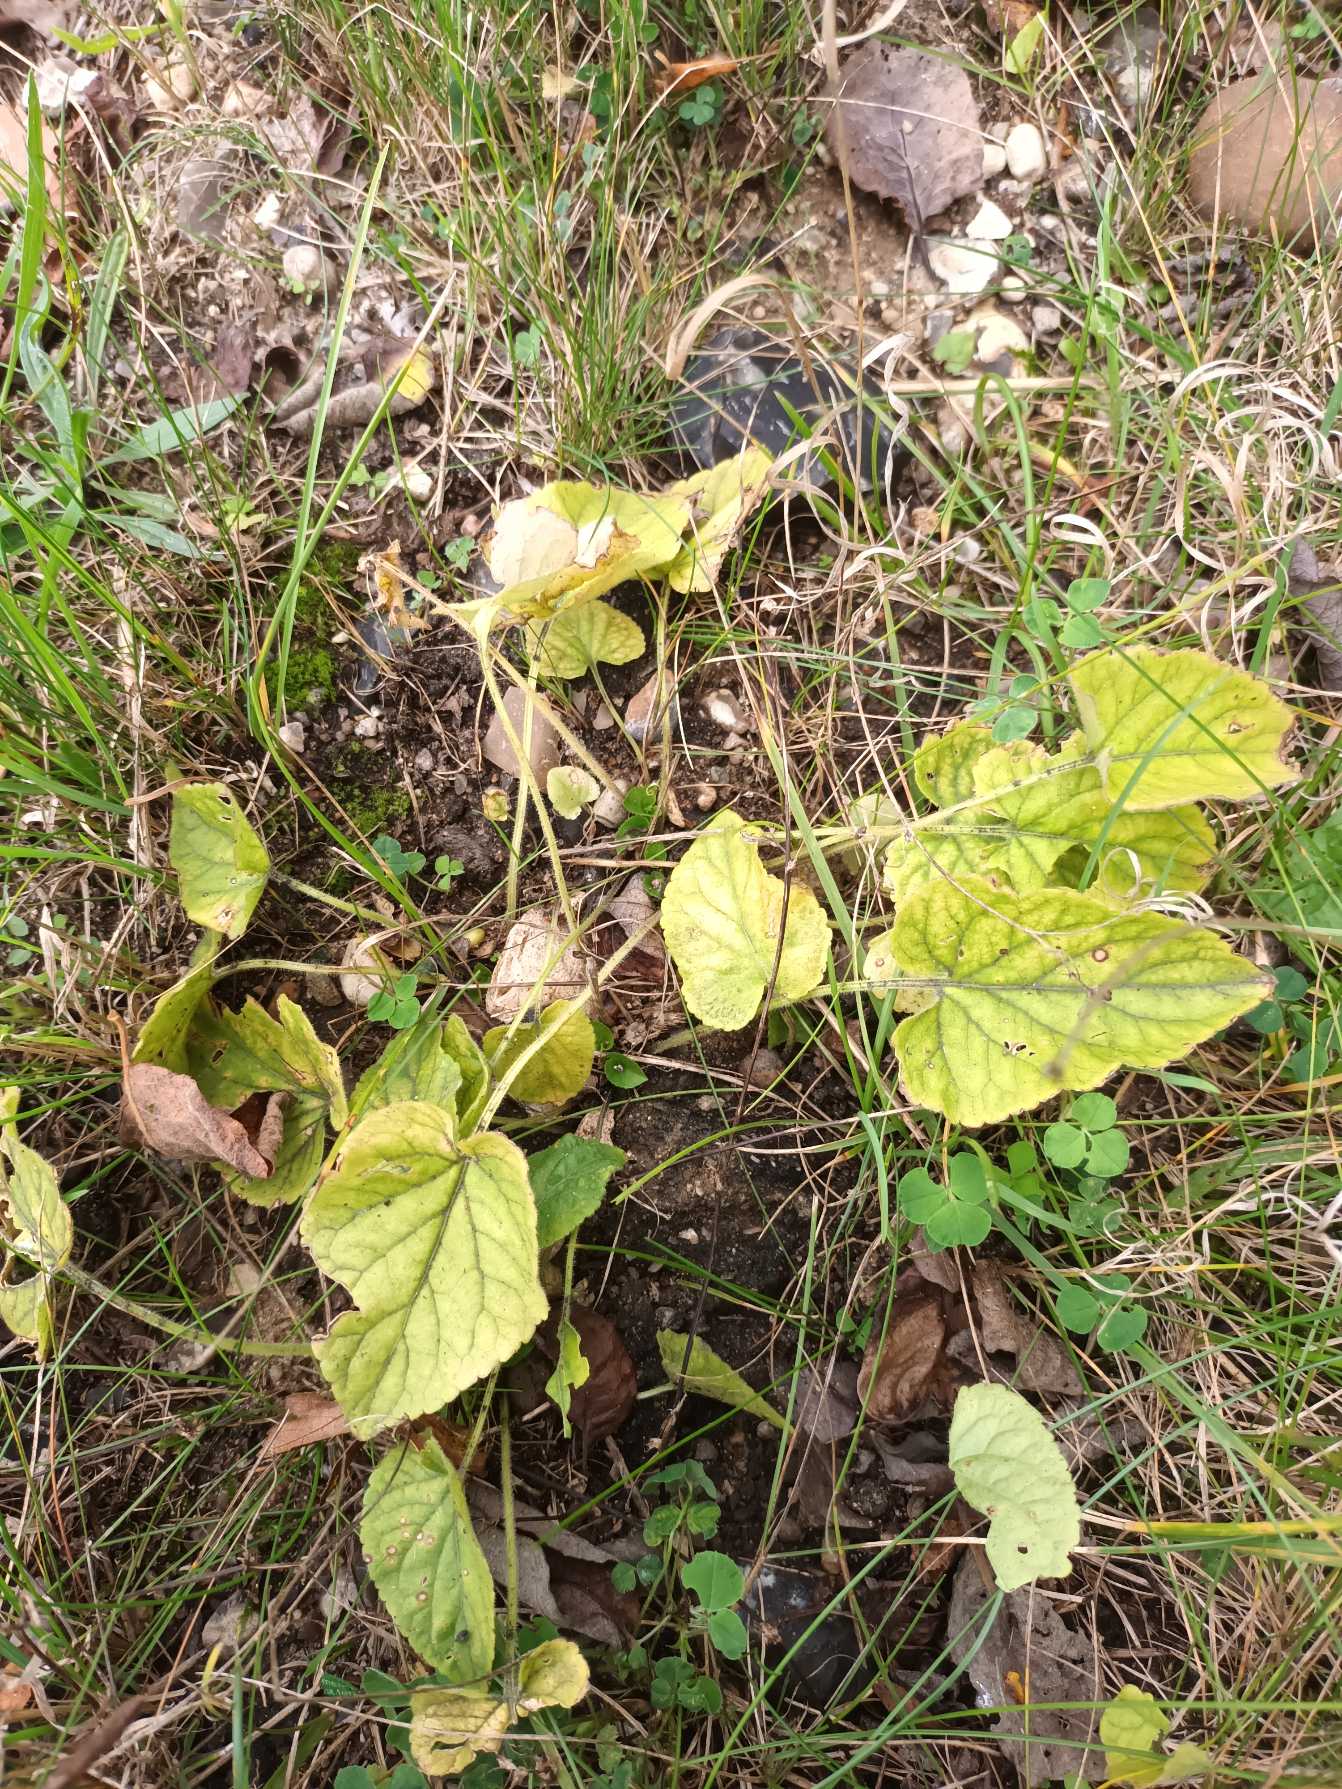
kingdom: Plantae
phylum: Tracheophyta
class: Magnoliopsida
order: Malpighiales
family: Violaceae
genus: Viola
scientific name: Viola hirta
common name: Håret viol
